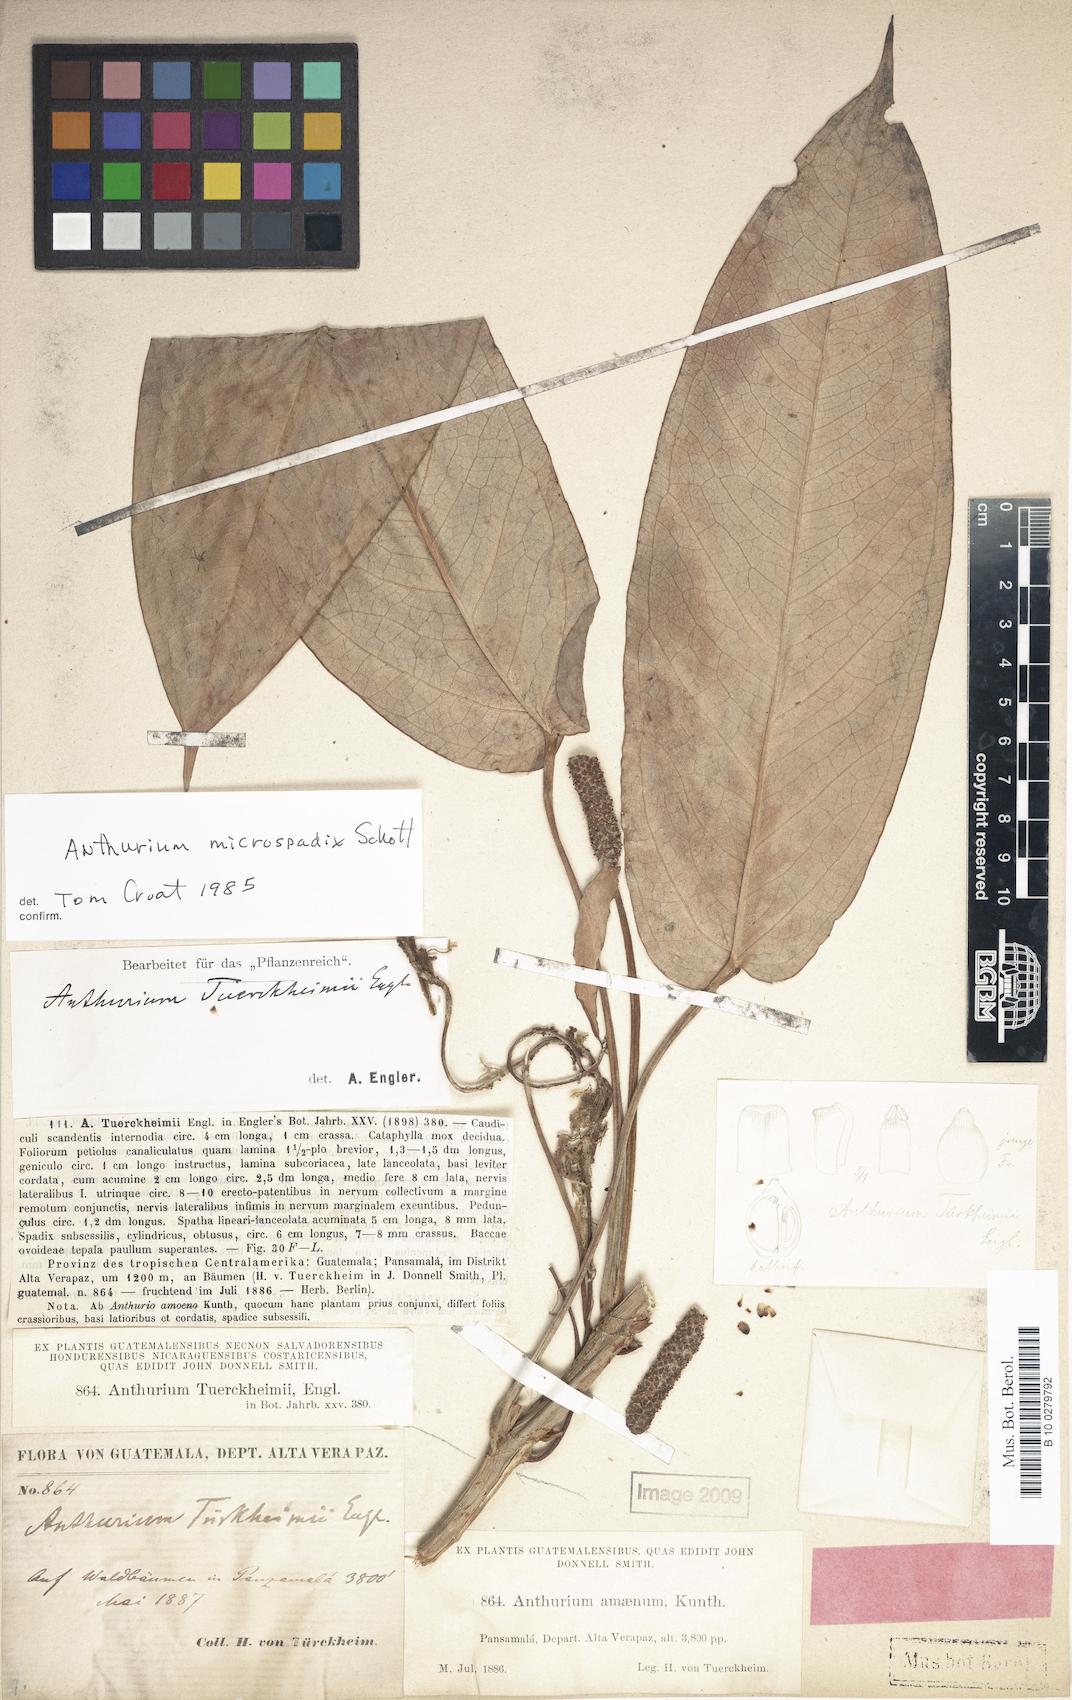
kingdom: Plantae
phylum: Tracheophyta
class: Liliopsida
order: Alismatales
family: Araceae
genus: Anthurium
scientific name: Anthurium microspadix
